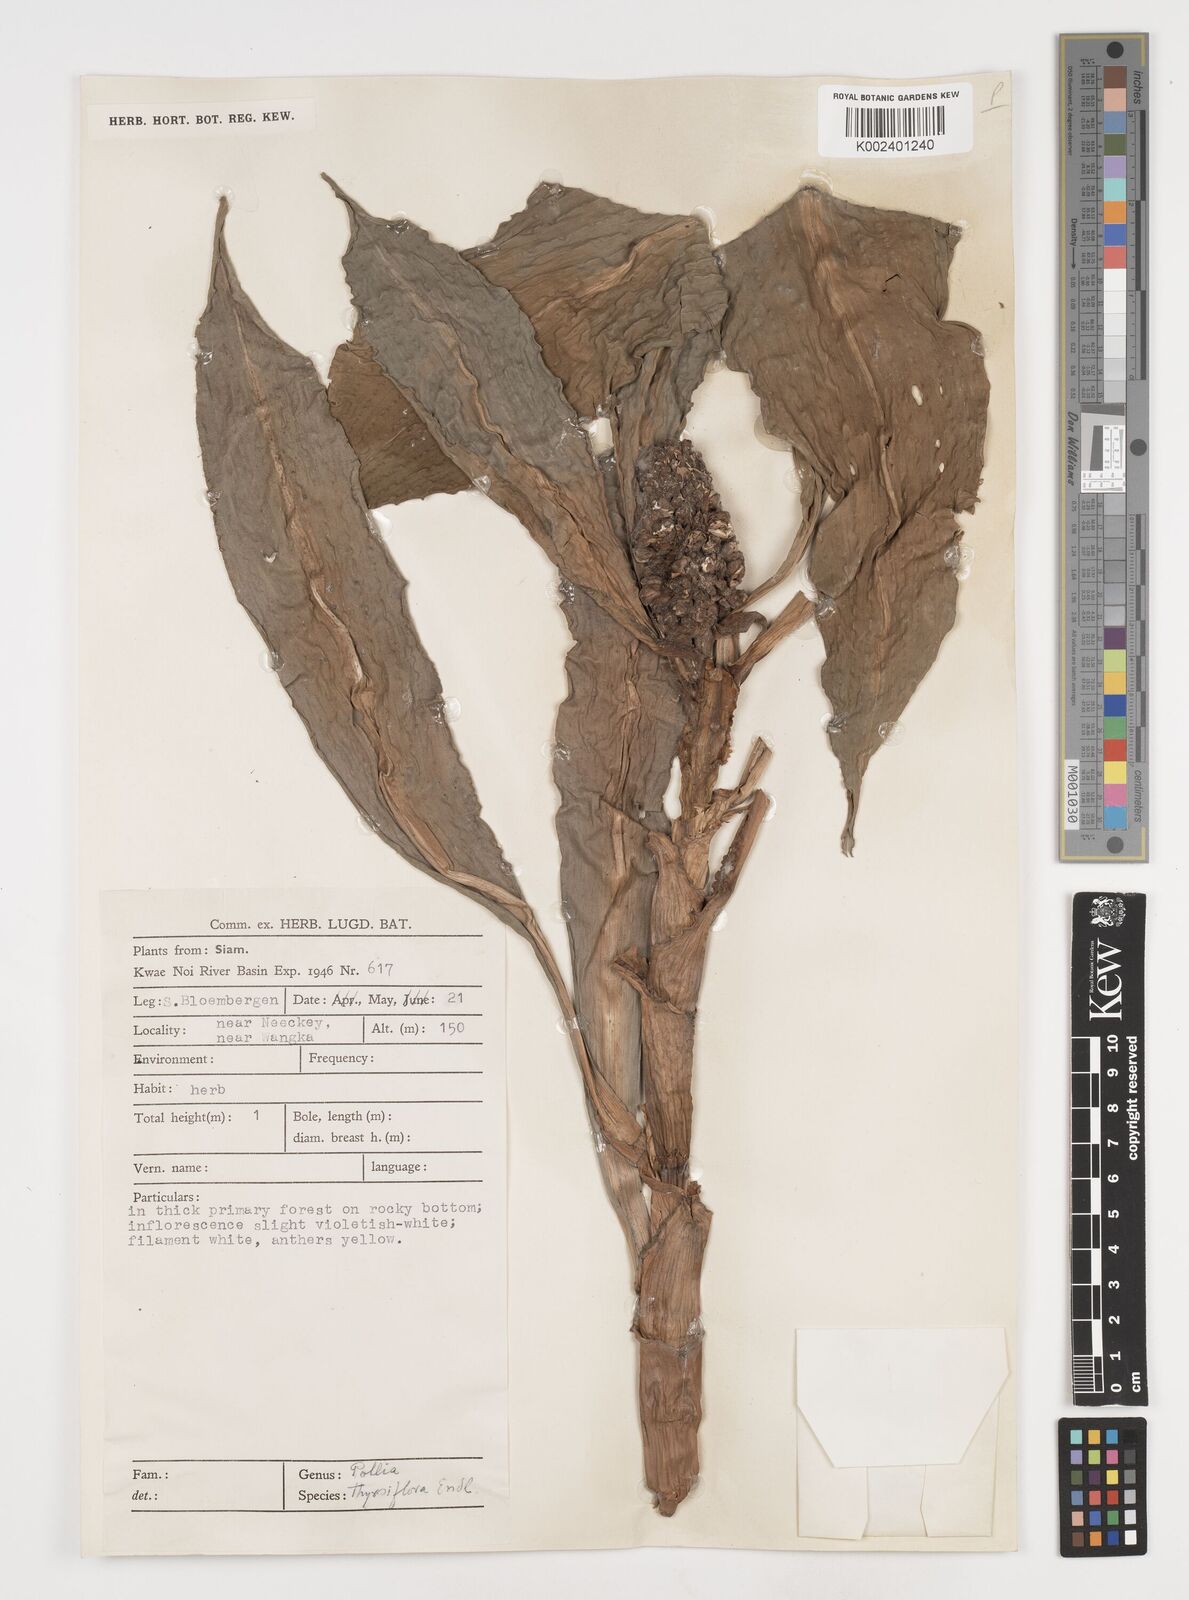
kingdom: Plantae
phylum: Tracheophyta
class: Liliopsida
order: Commelinales
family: Commelinaceae
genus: Pollia
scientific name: Pollia thyrsiflora
